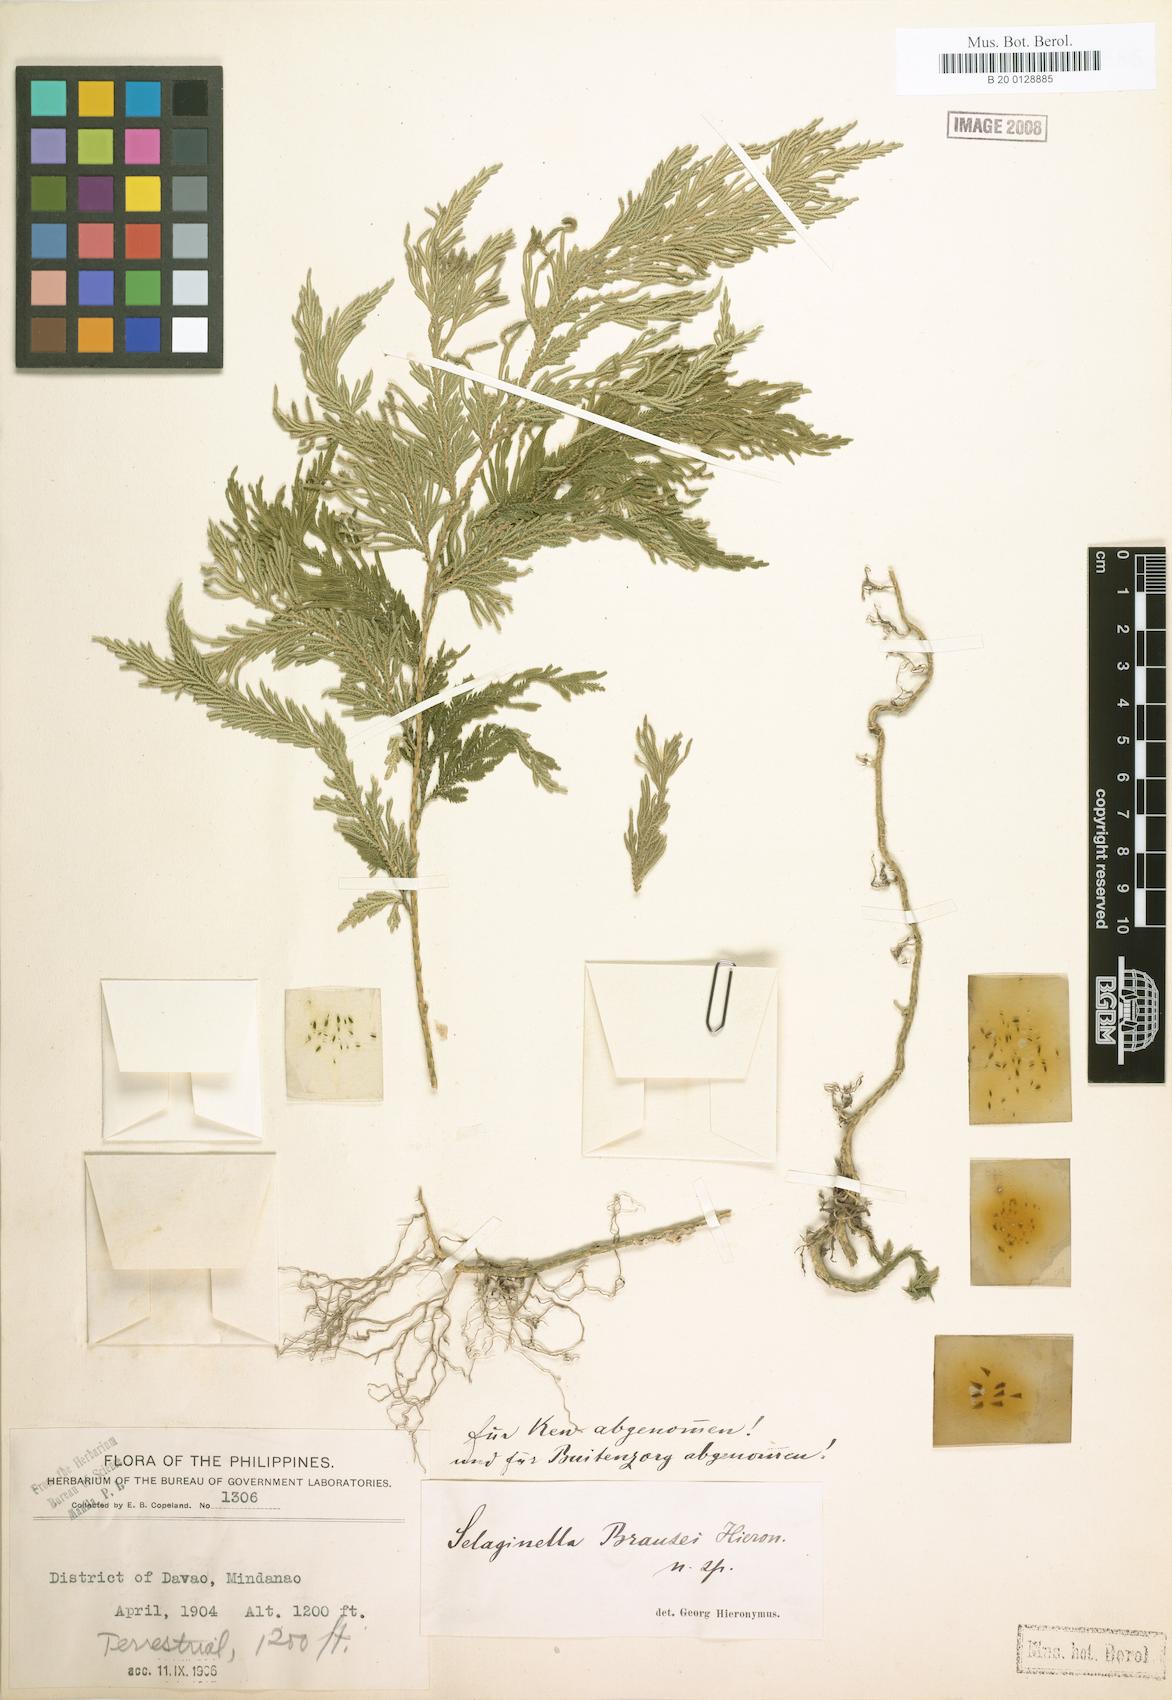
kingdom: Plantae
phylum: Tracheophyta
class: Lycopodiopsida
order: Selaginellales
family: Selaginellaceae
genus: Selaginella
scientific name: Selaginella cupressina
